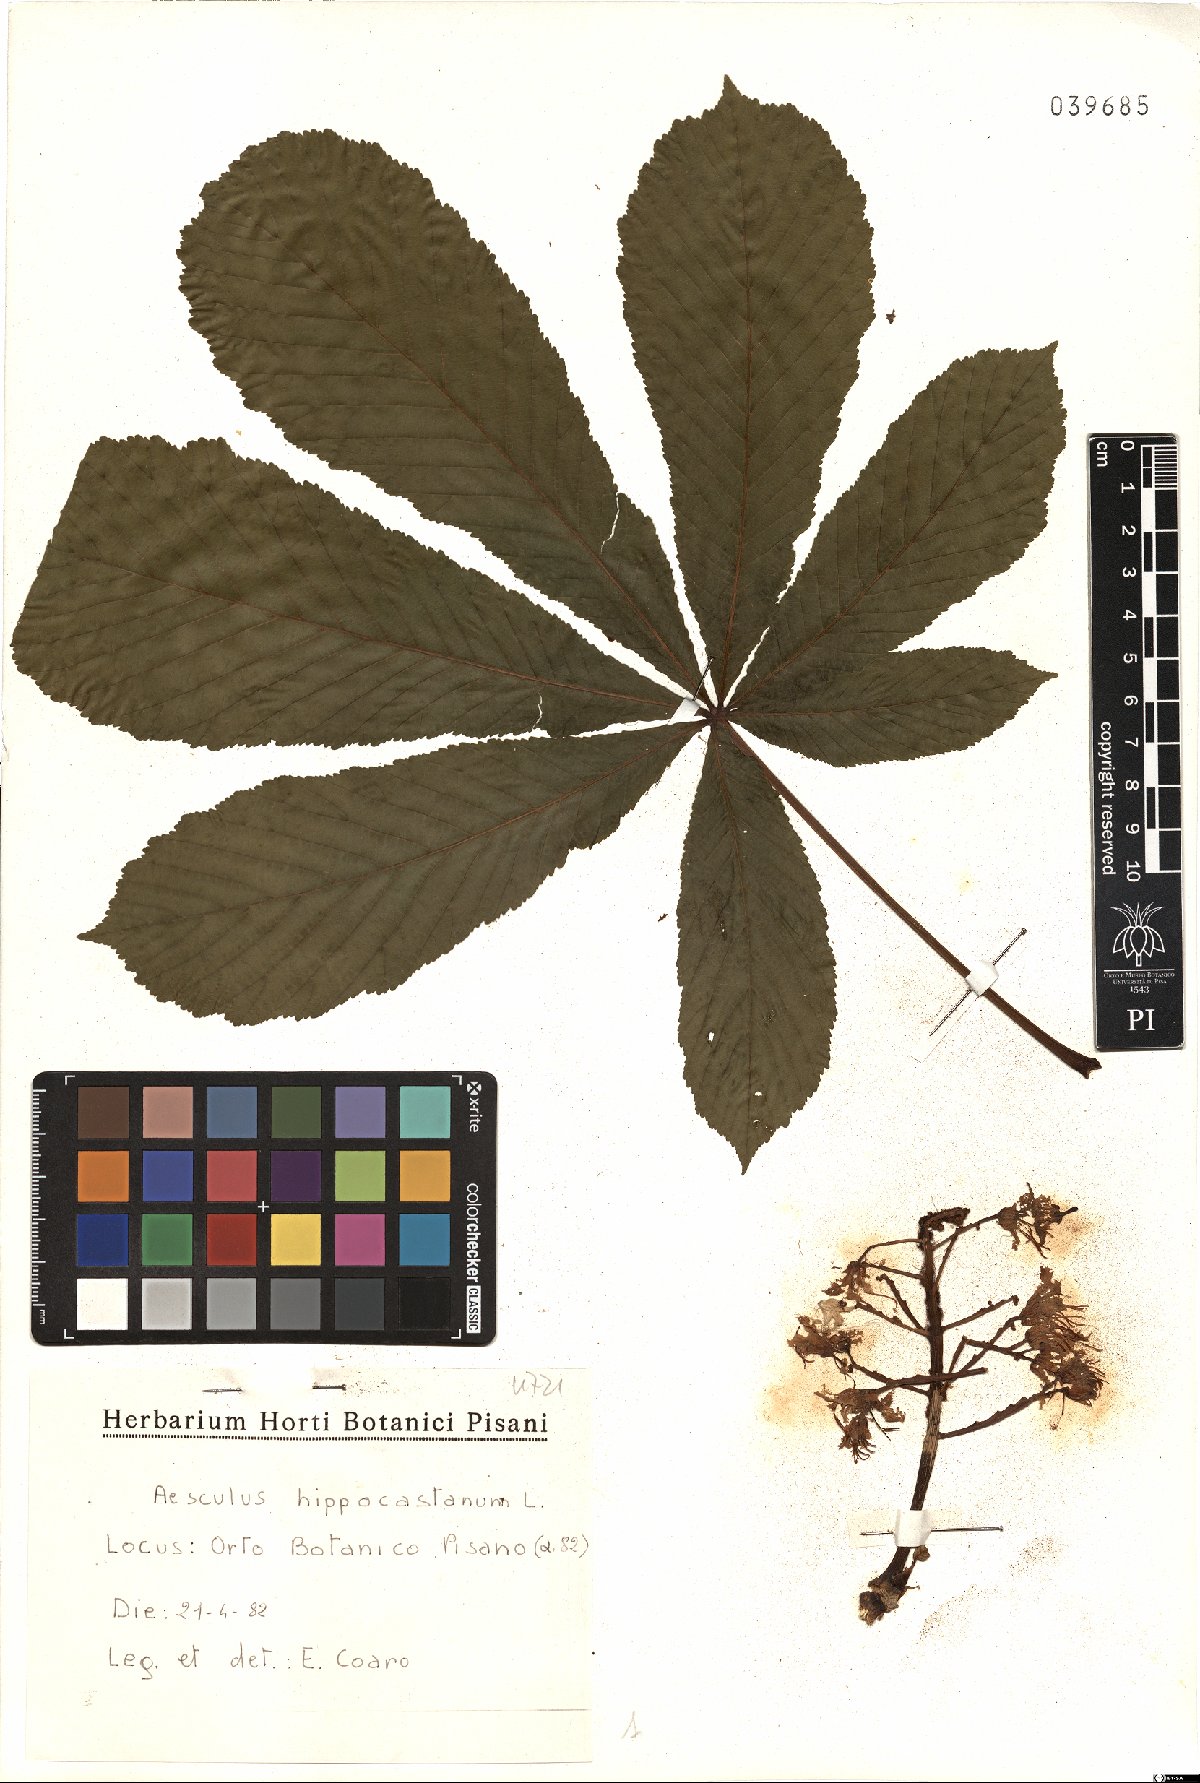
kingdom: Plantae
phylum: Tracheophyta
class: Magnoliopsida
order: Sapindales
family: Sapindaceae
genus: Aesculus
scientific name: Aesculus hippocastanum
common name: Horse-chestnut
